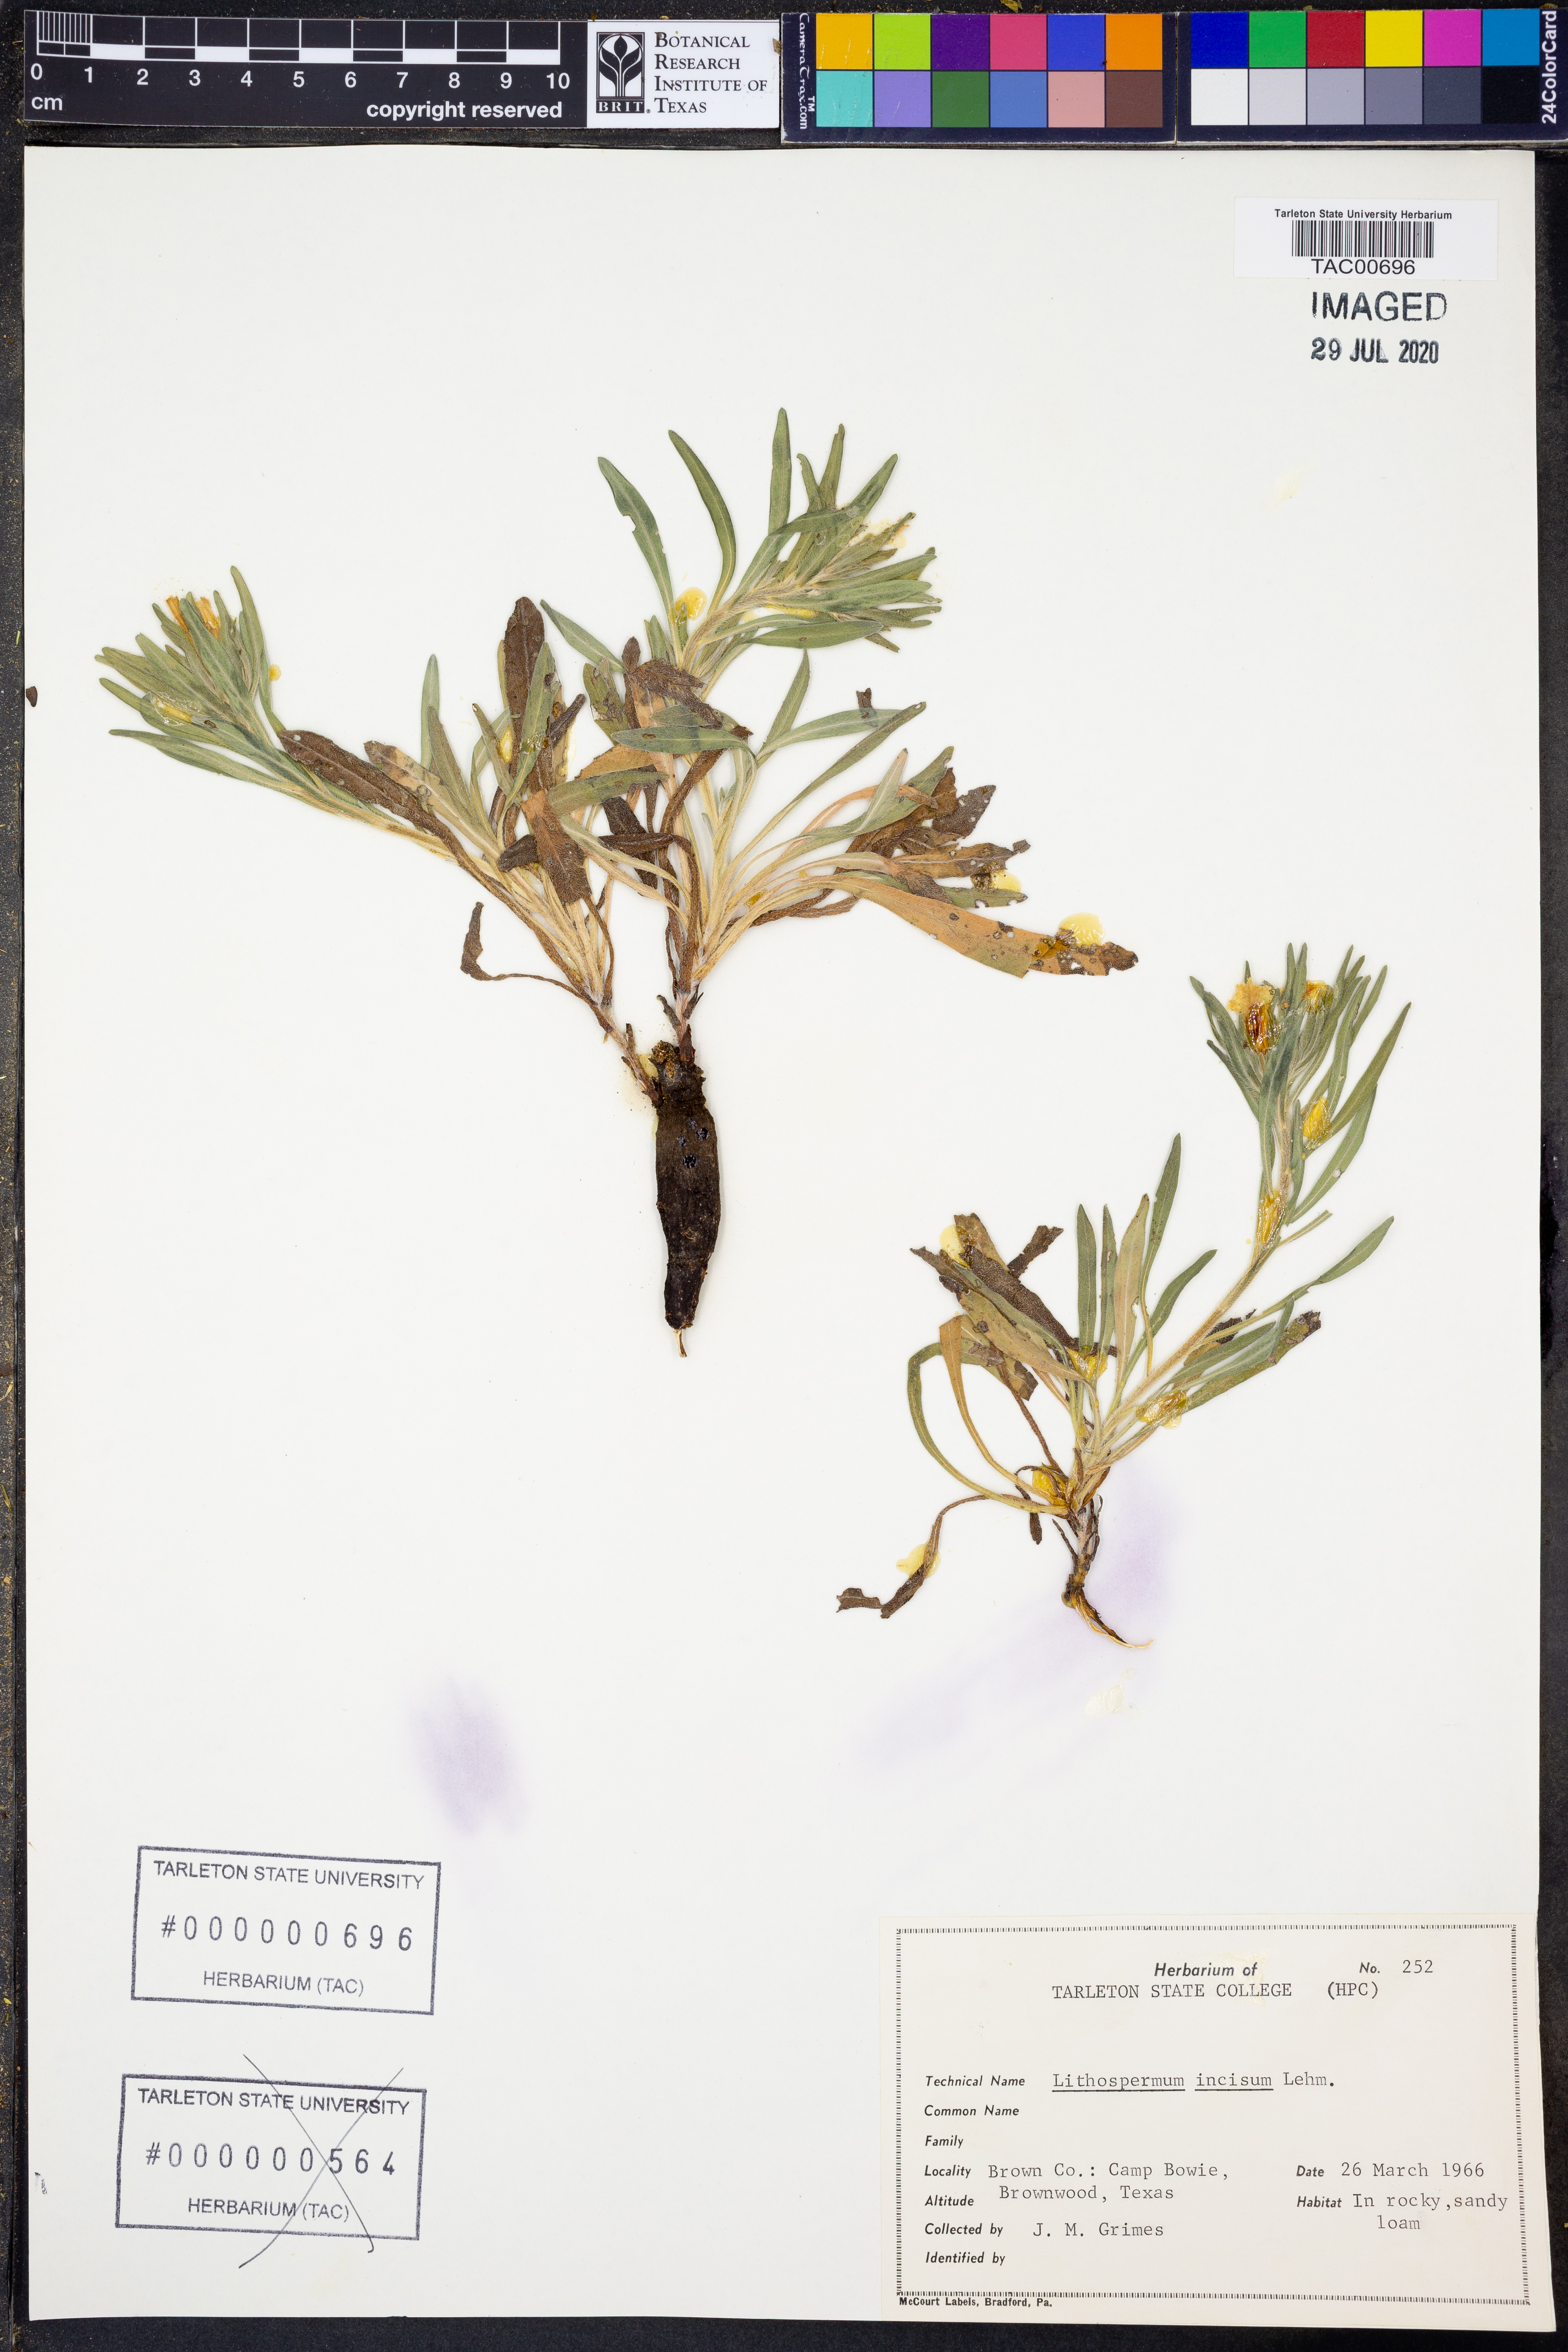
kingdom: Plantae
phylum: Tracheophyta
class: Magnoliopsida
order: Boraginales
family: Boraginaceae
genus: Lithospermum
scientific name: Lithospermum incisum
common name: Fringed gromwell
